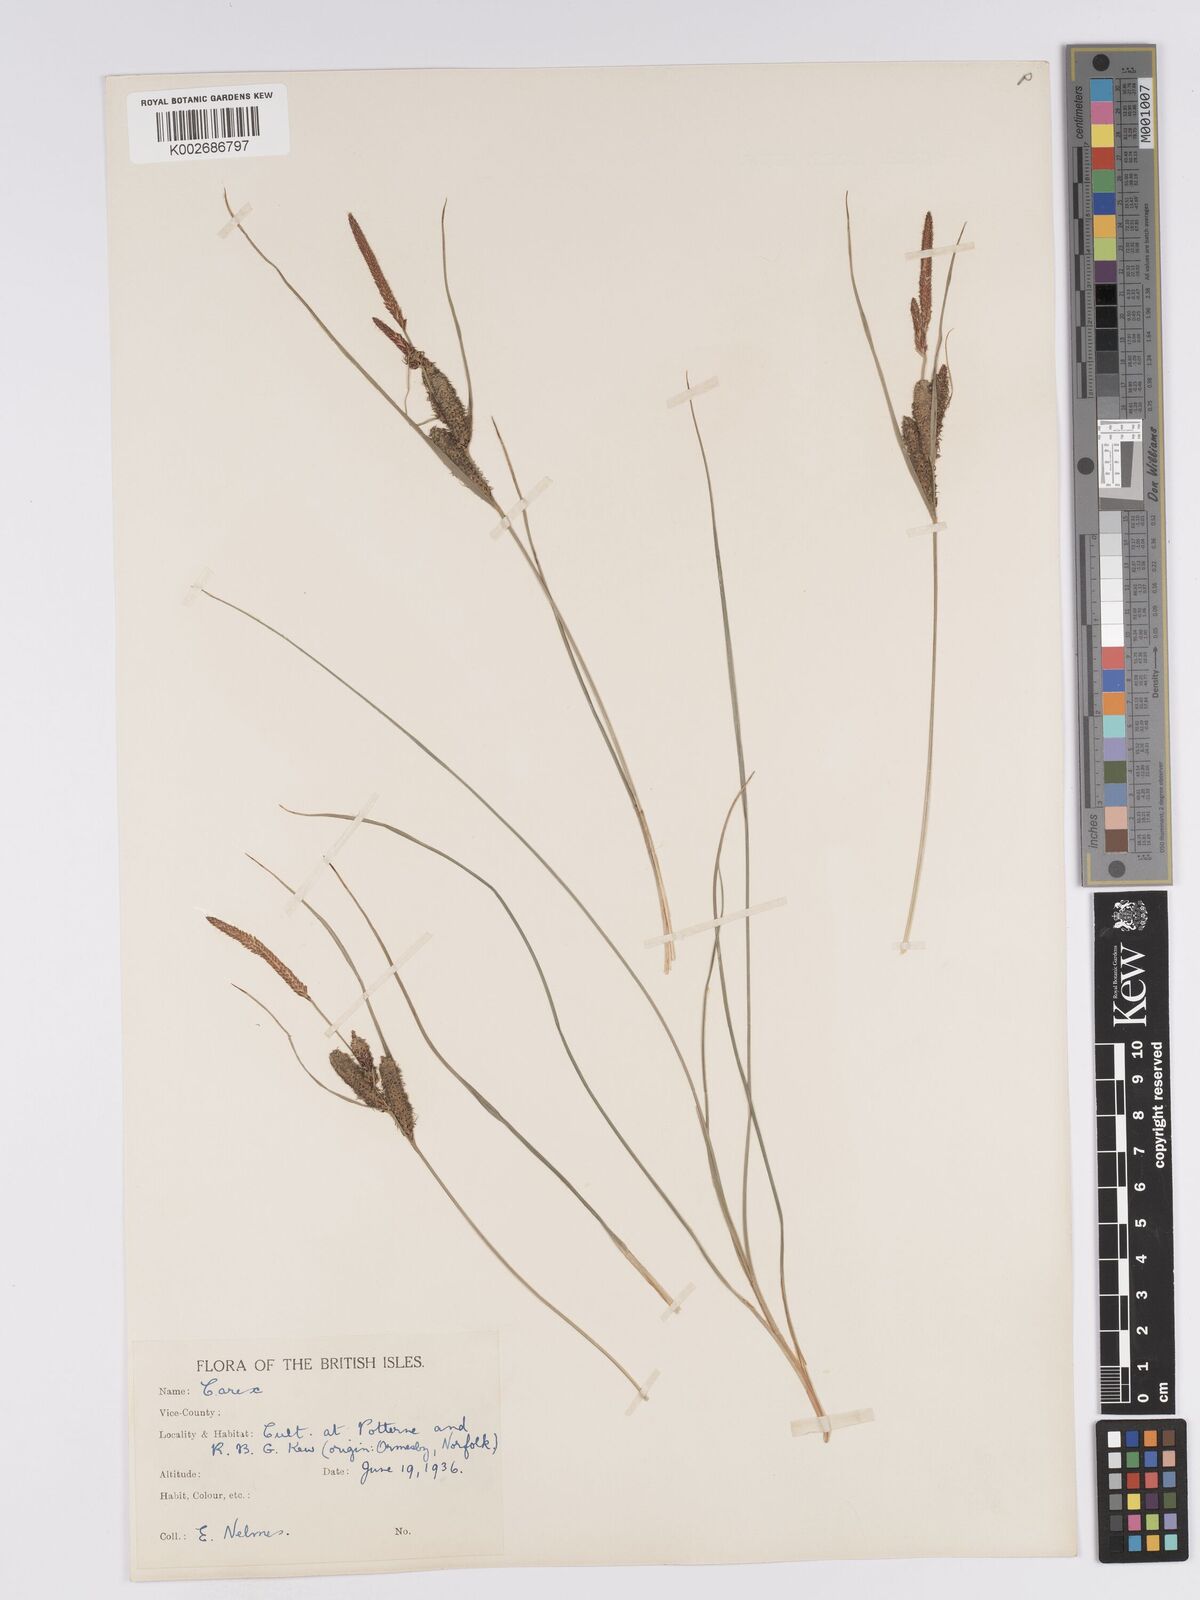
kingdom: Plantae
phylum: Tracheophyta
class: Liliopsida
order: Poales
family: Cyperaceae
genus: Carex
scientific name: Carex trinervis
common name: Three-nerved sedge
